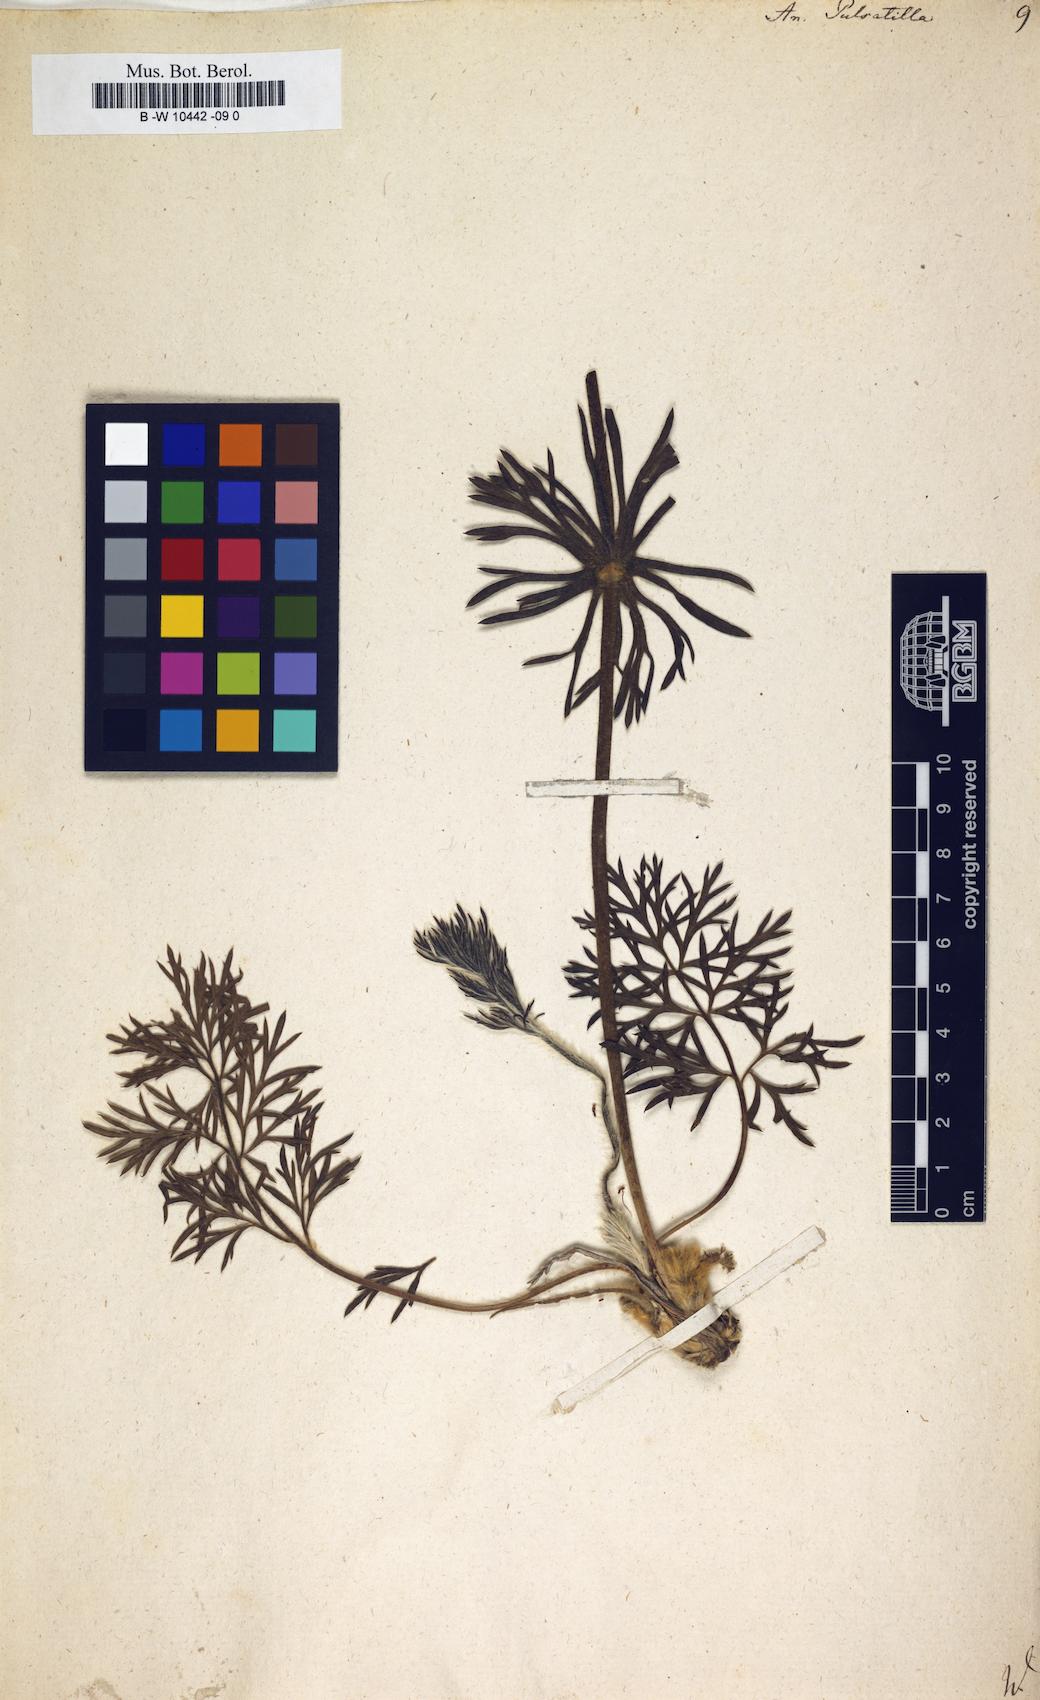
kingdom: Plantae
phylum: Tracheophyta
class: Magnoliopsida
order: Ranunculales
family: Ranunculaceae
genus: Pulsatilla
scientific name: Pulsatilla vulgaris
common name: Pasqueflower
